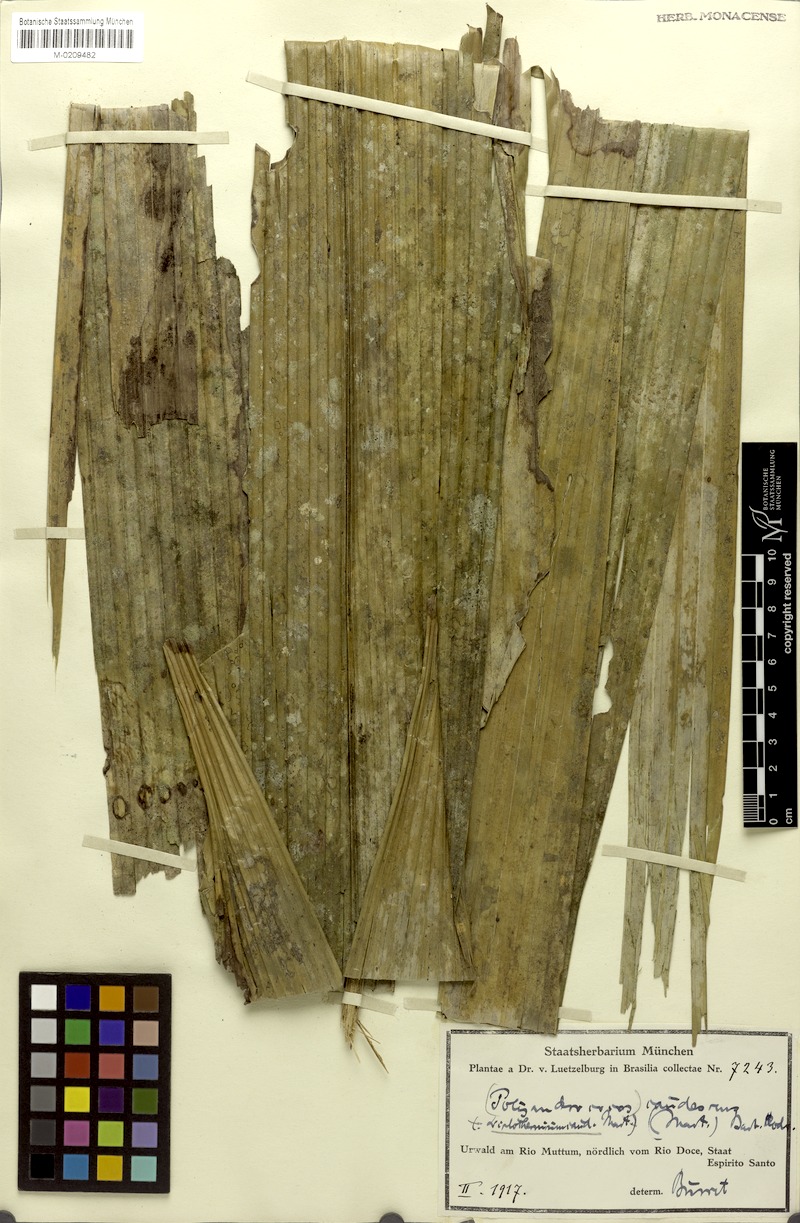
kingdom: Plantae
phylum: Tracheophyta
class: Liliopsida
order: Arecales
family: Arecaceae
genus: Allagoptera
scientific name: Allagoptera caudescens
